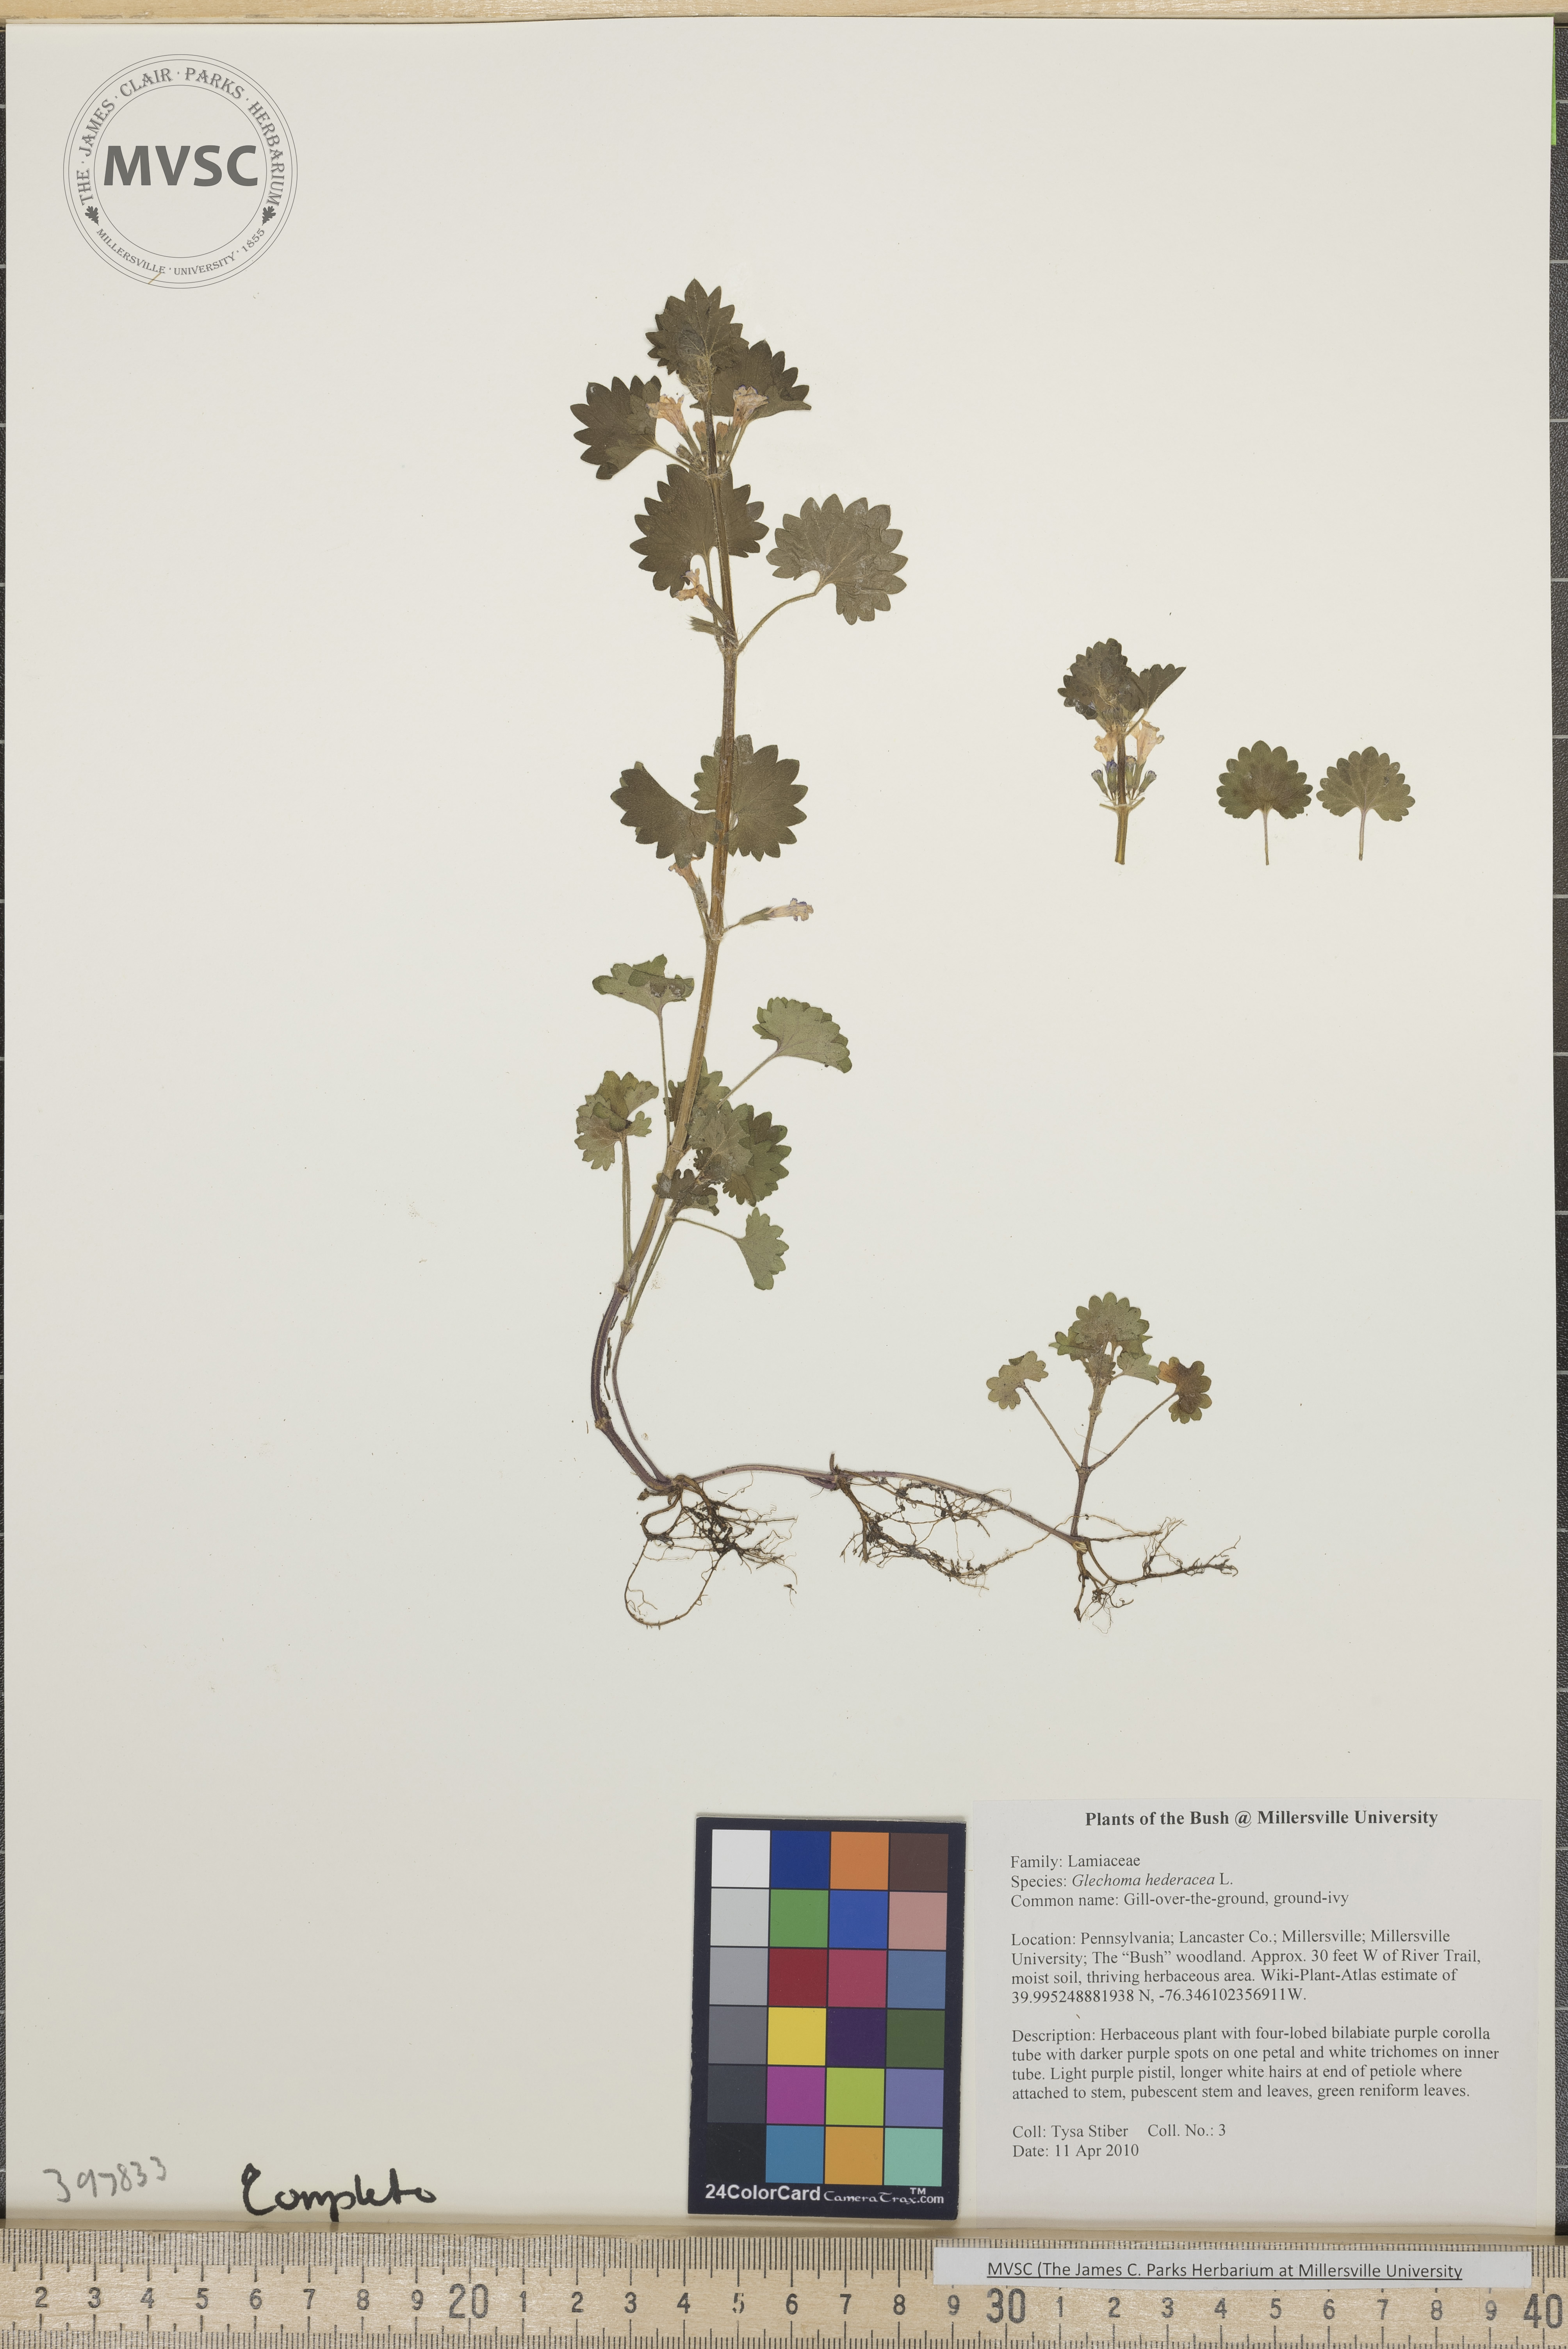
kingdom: Plantae
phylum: Tracheophyta
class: Magnoliopsida
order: Lamiales
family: Lamiaceae
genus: Glechoma
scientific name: Glechoma hederacea
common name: Gill-over-the-ground
